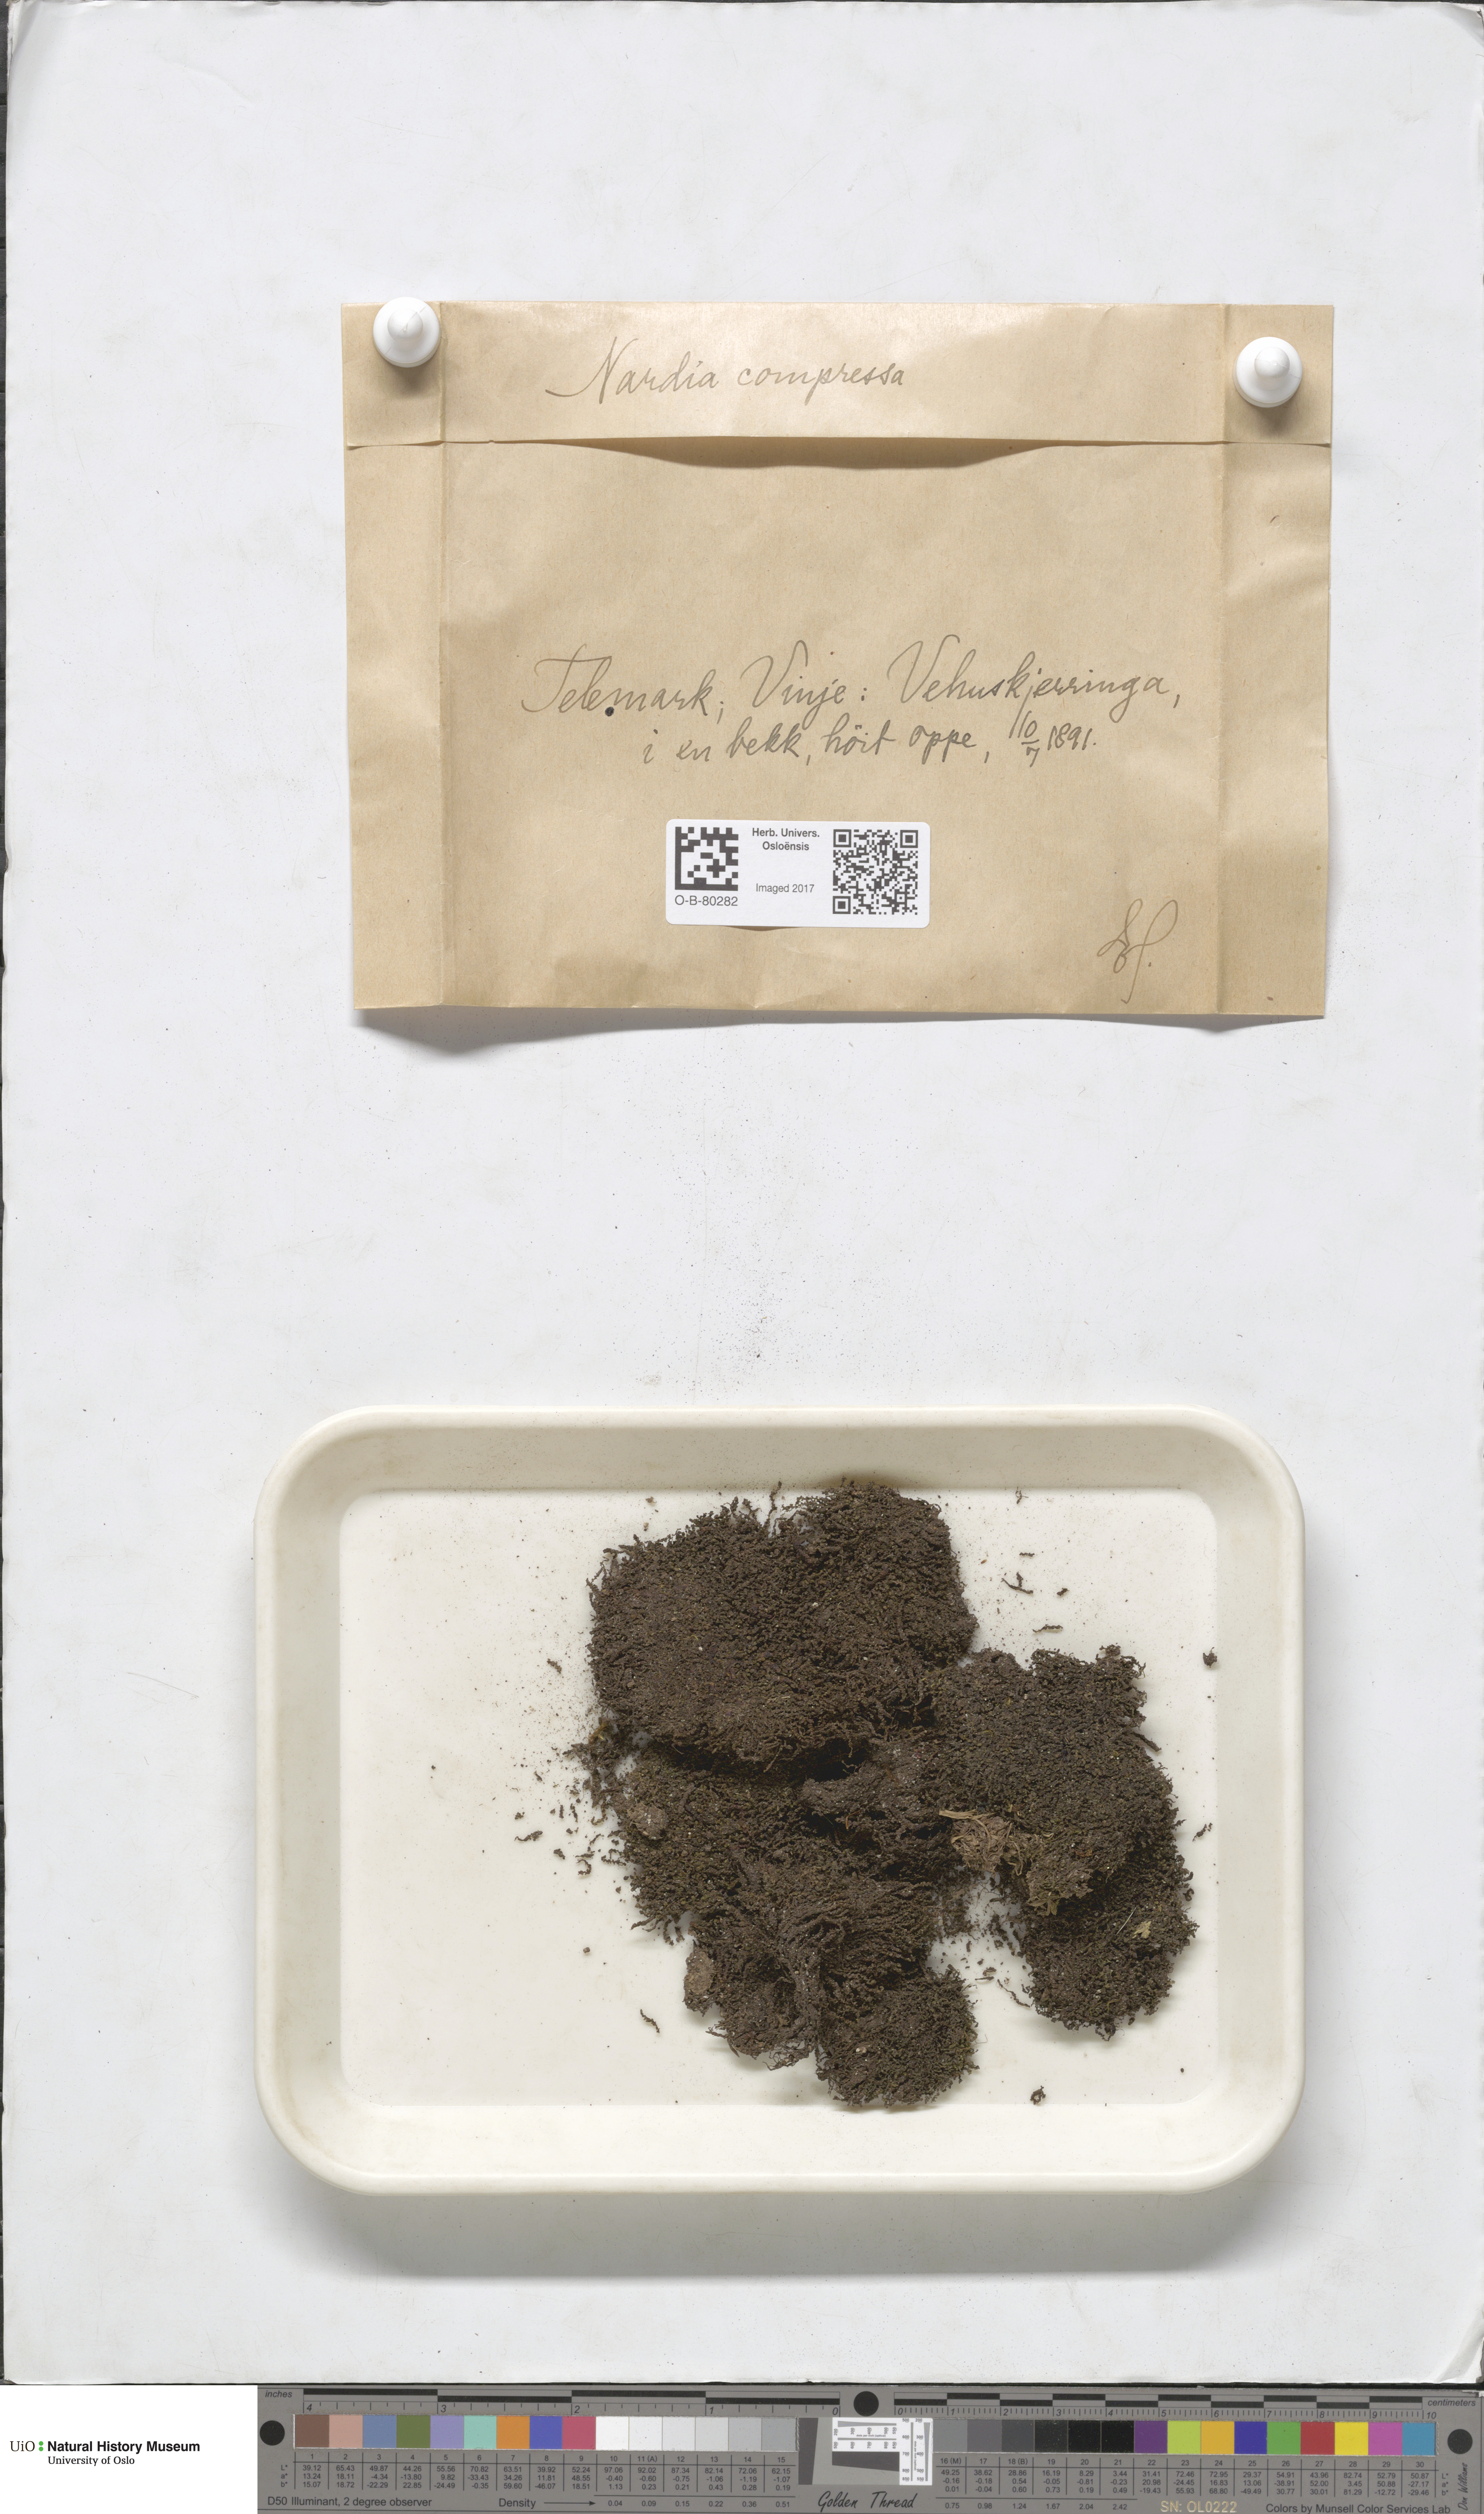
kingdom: Plantae
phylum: Marchantiophyta
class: Jungermanniopsida
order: Jungermanniales
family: Gymnomitriaceae
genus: Nardia
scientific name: Nardia compressa
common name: Compressed flapwort
